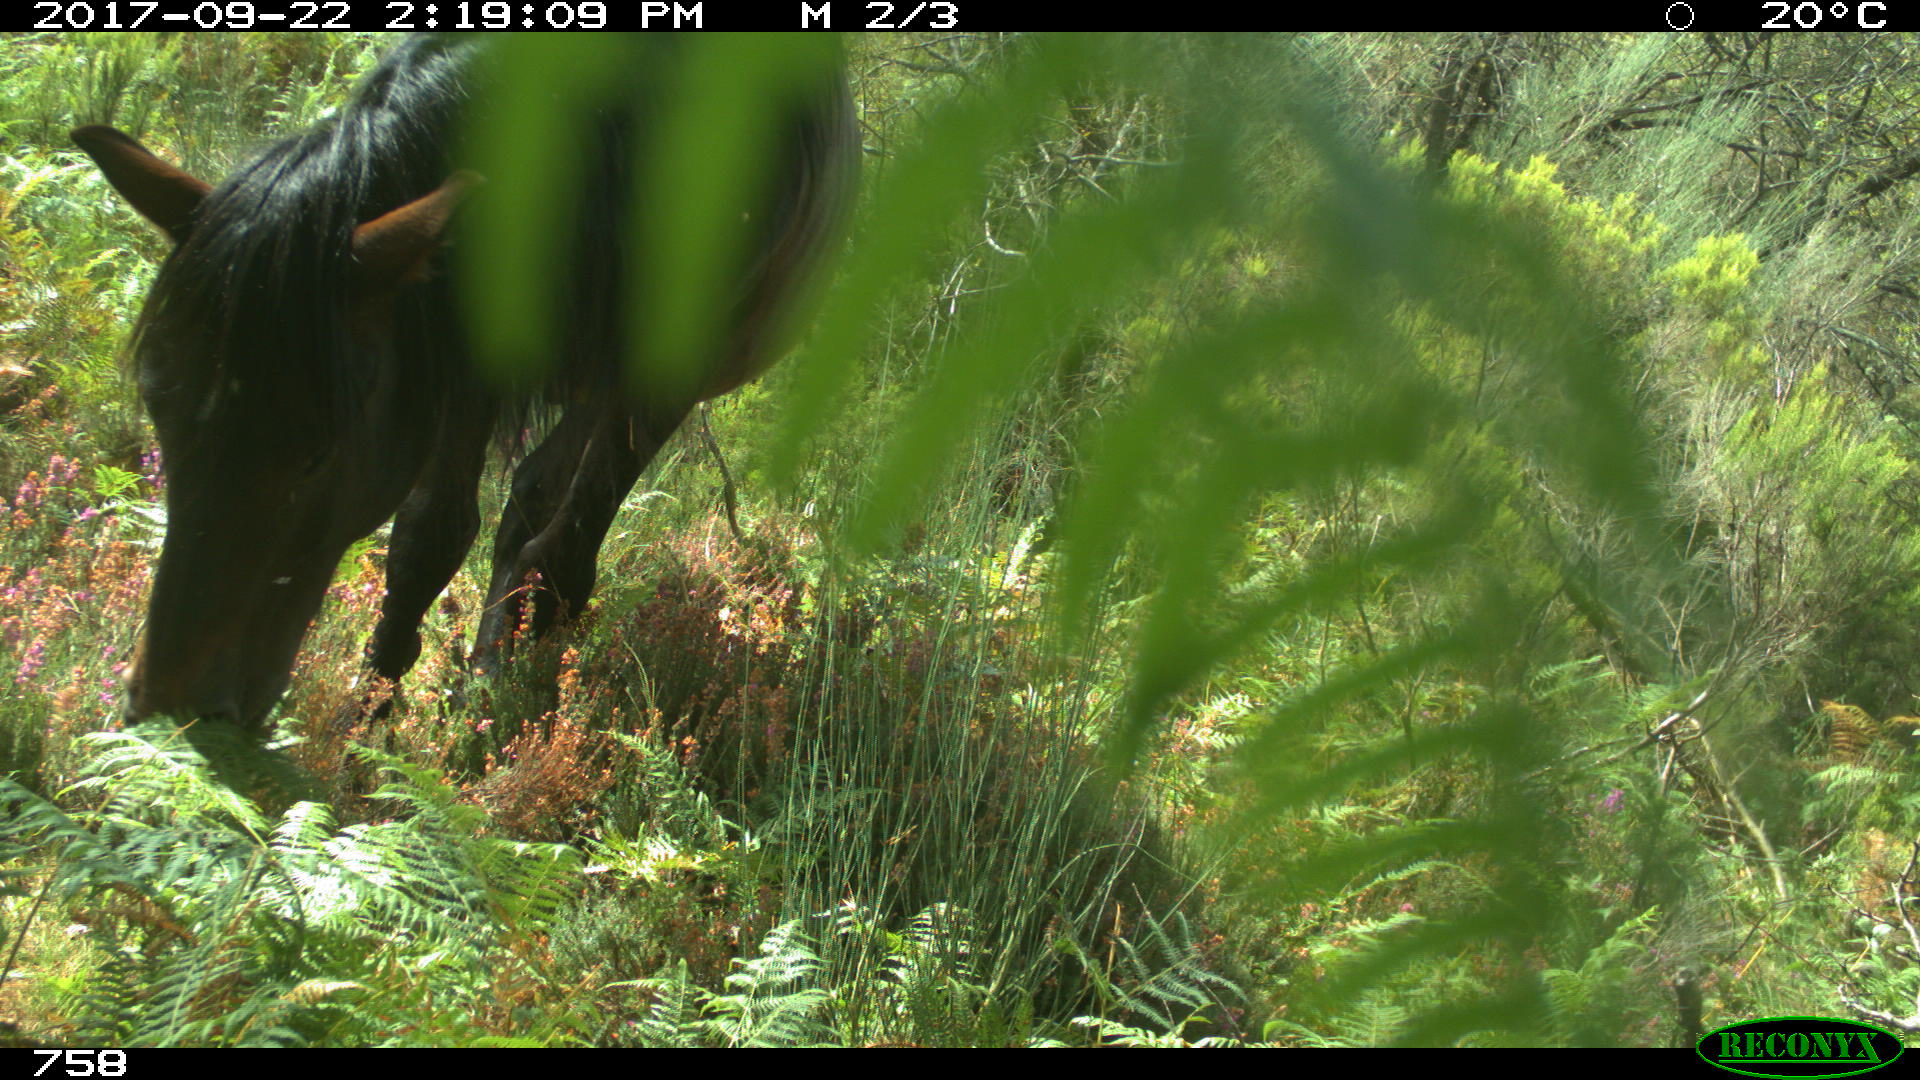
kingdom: Animalia
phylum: Chordata
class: Mammalia
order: Perissodactyla
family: Equidae
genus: Equus
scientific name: Equus caballus
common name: Horse
